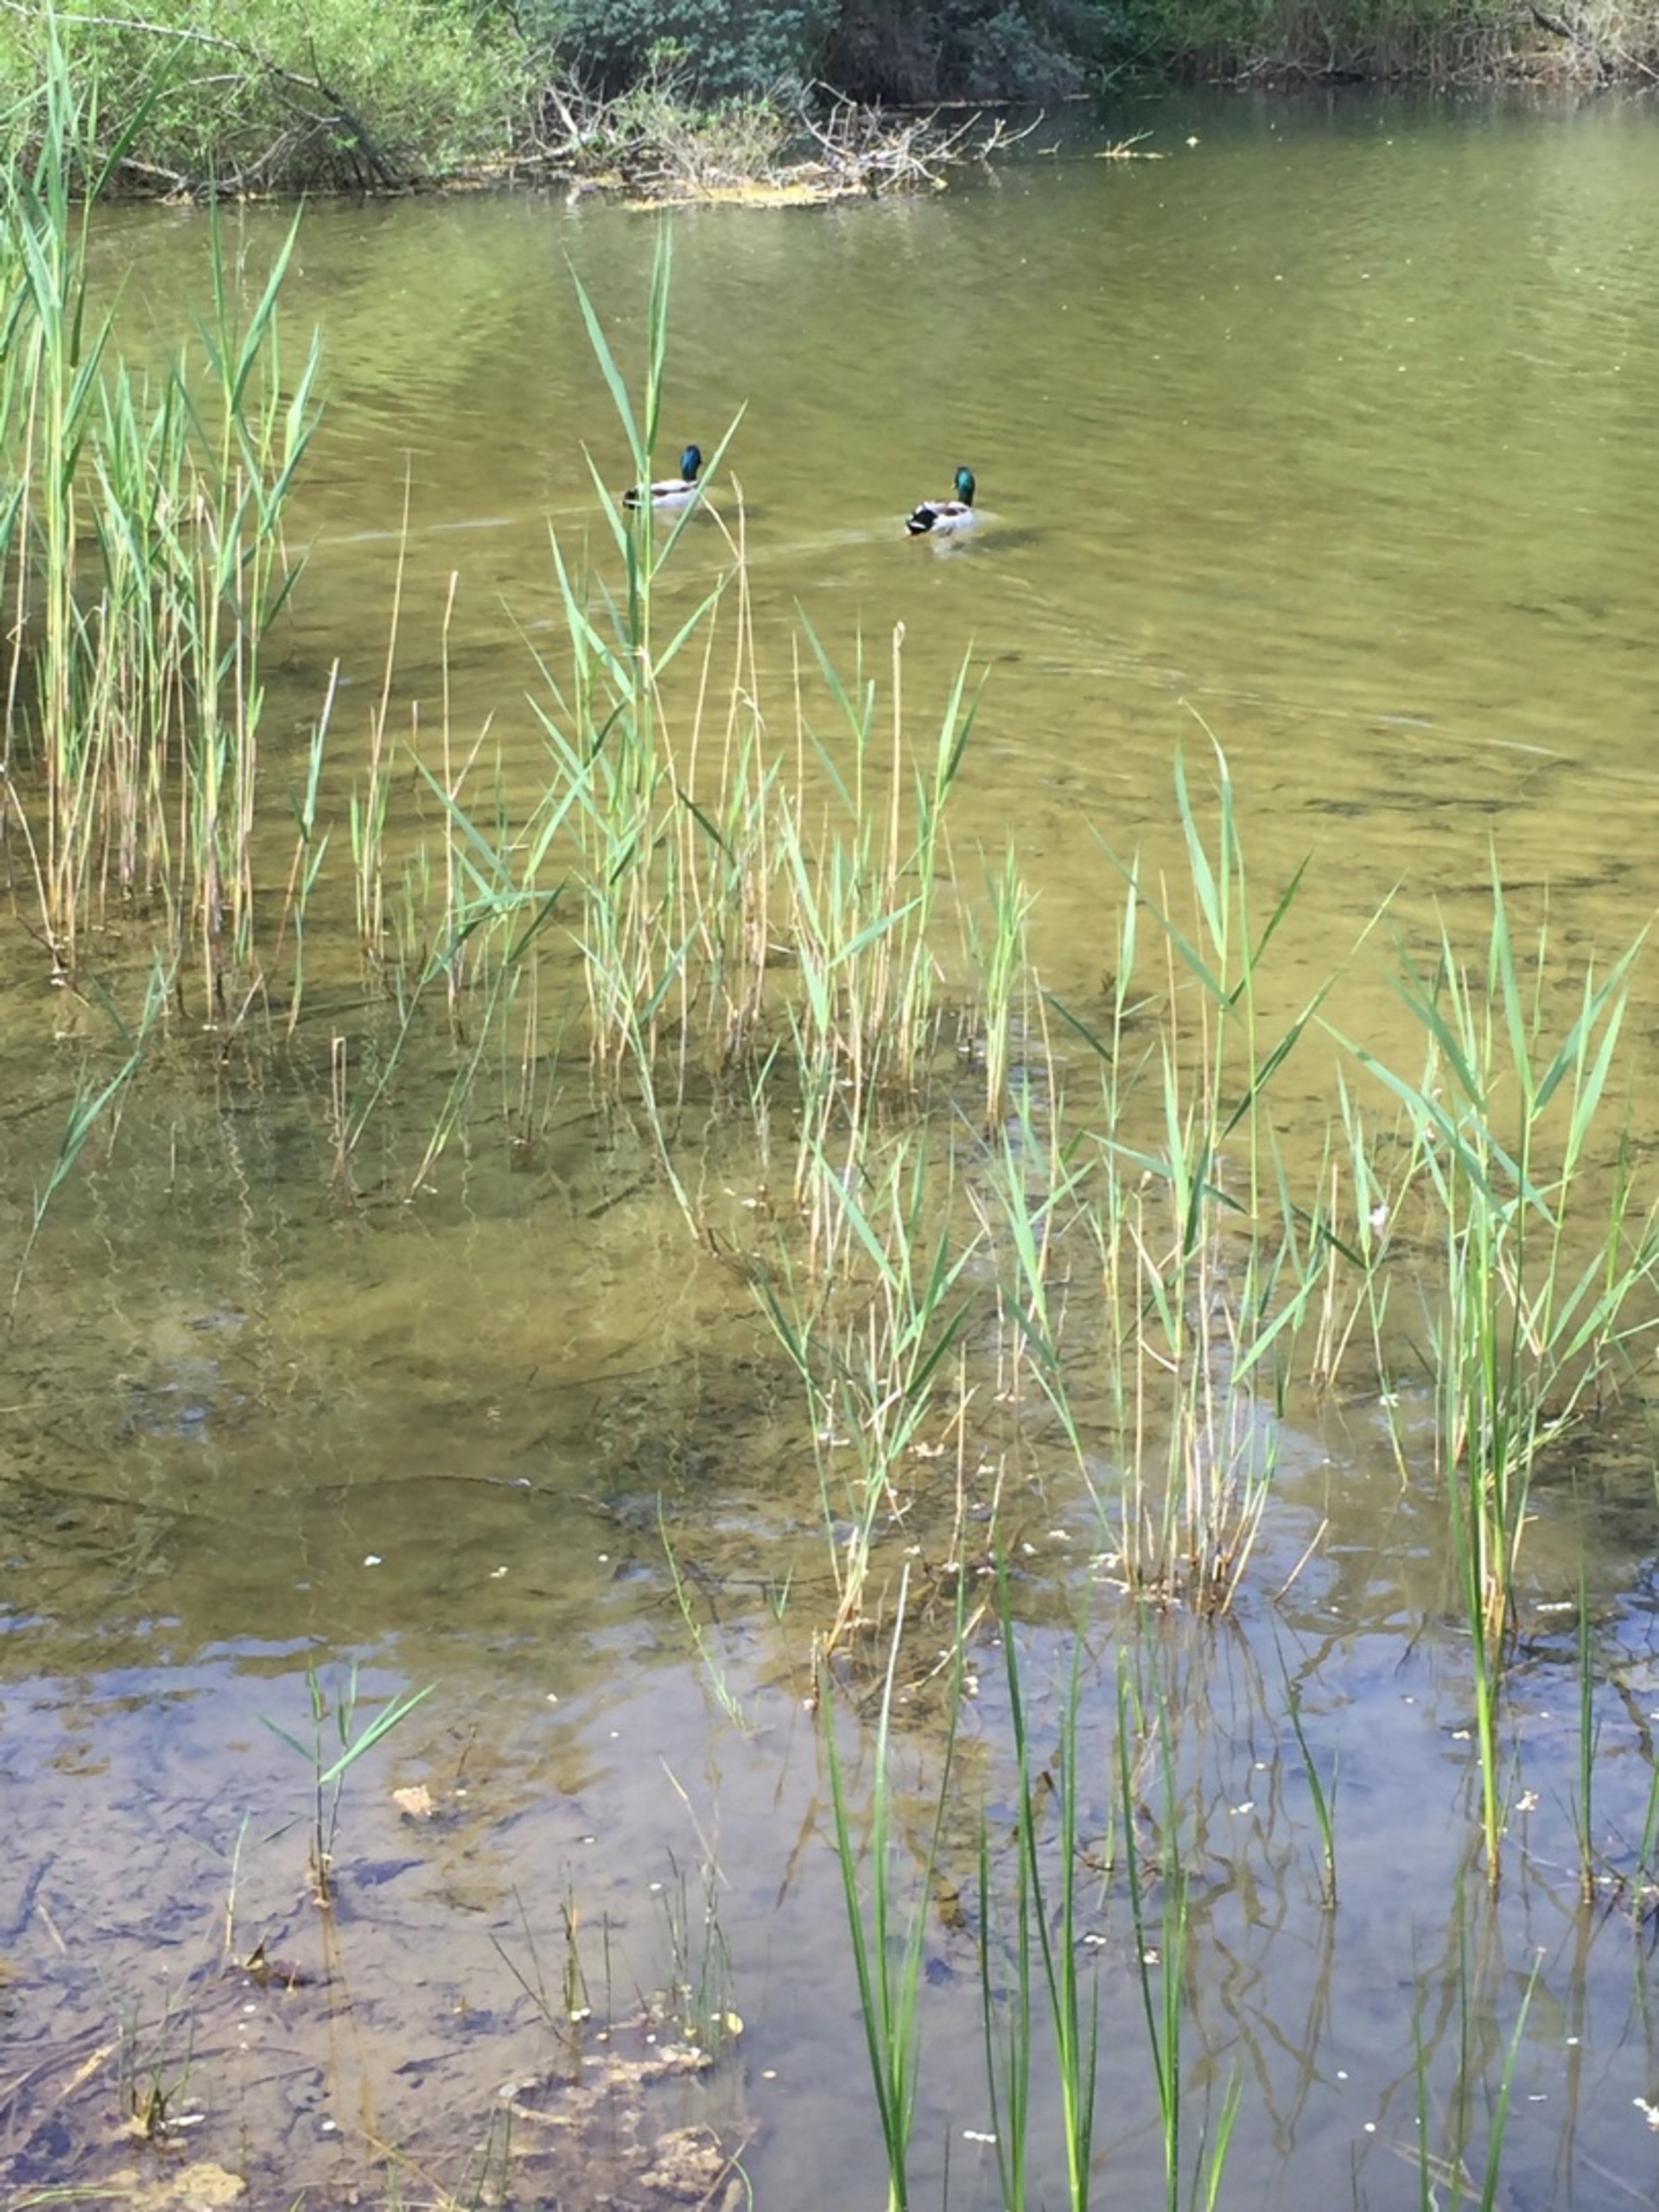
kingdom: Animalia
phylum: Chordata
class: Aves
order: Anseriformes
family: Anatidae
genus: Anas
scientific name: Anas platyrhynchos
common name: Gråand
